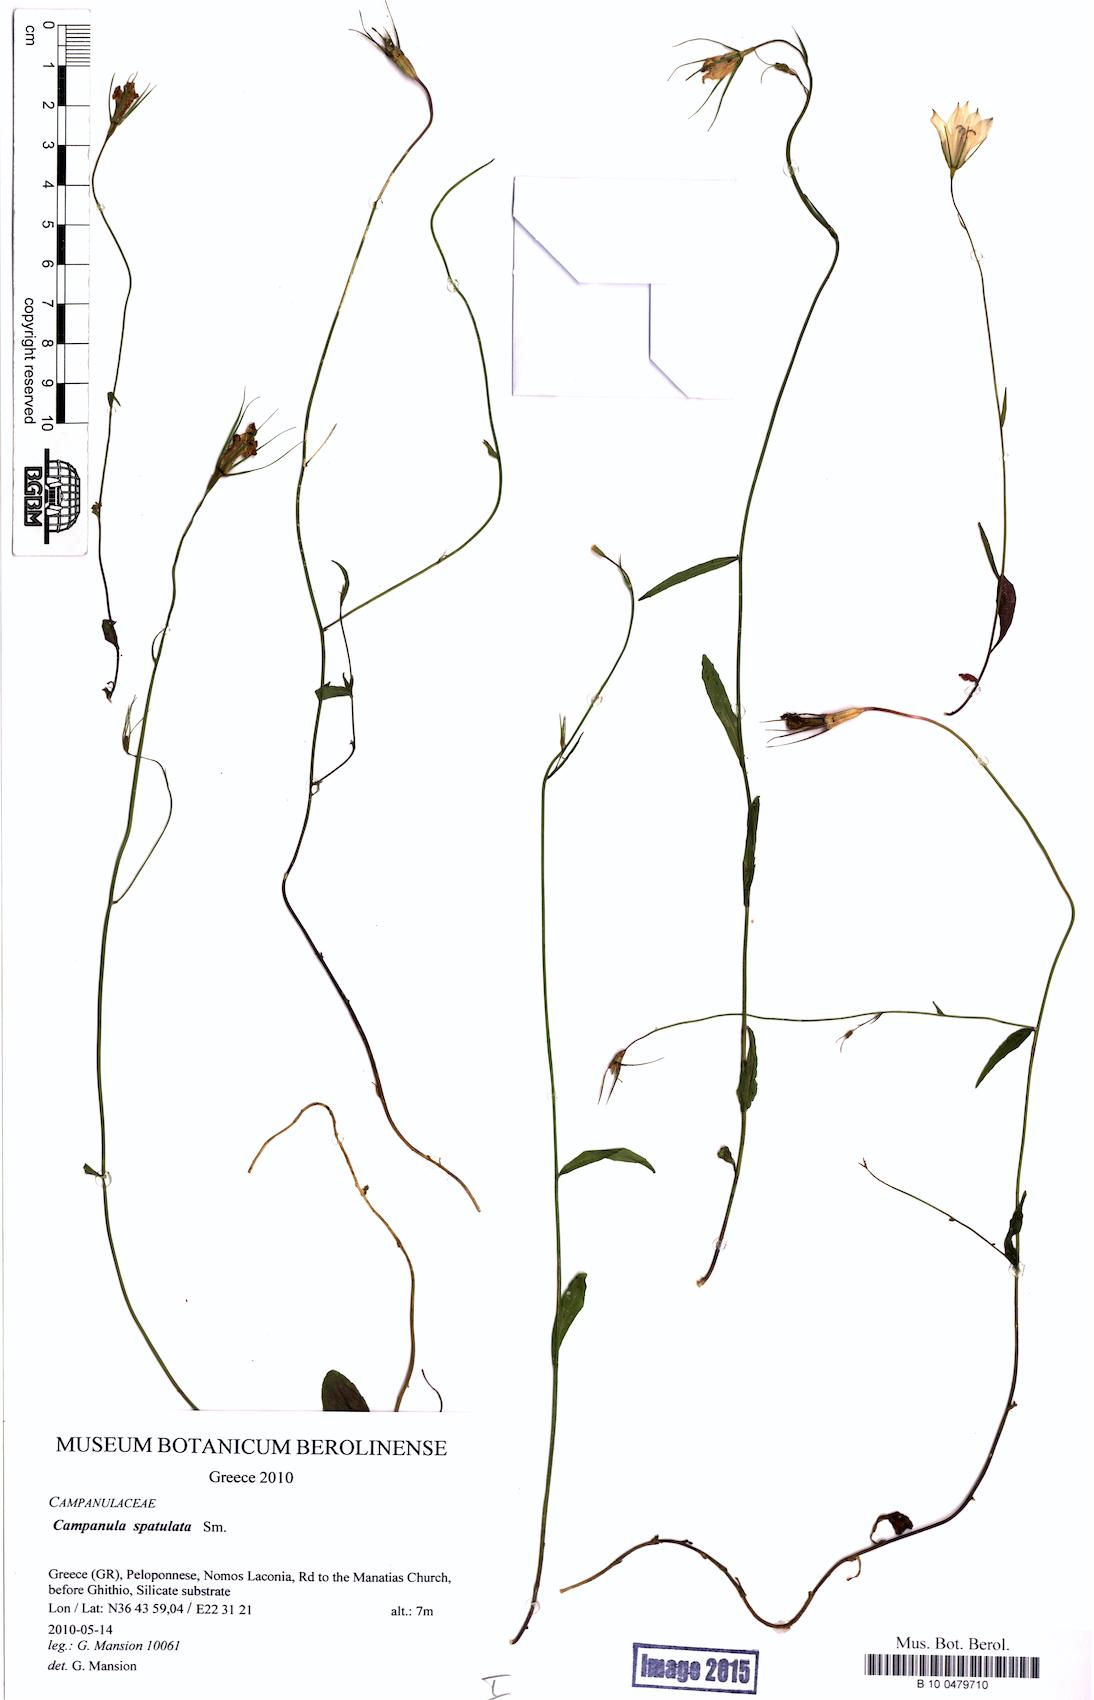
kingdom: Plantae
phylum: Tracheophyta
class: Magnoliopsida
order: Asterales
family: Campanulaceae
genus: Campanula
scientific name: Campanula spatulata
